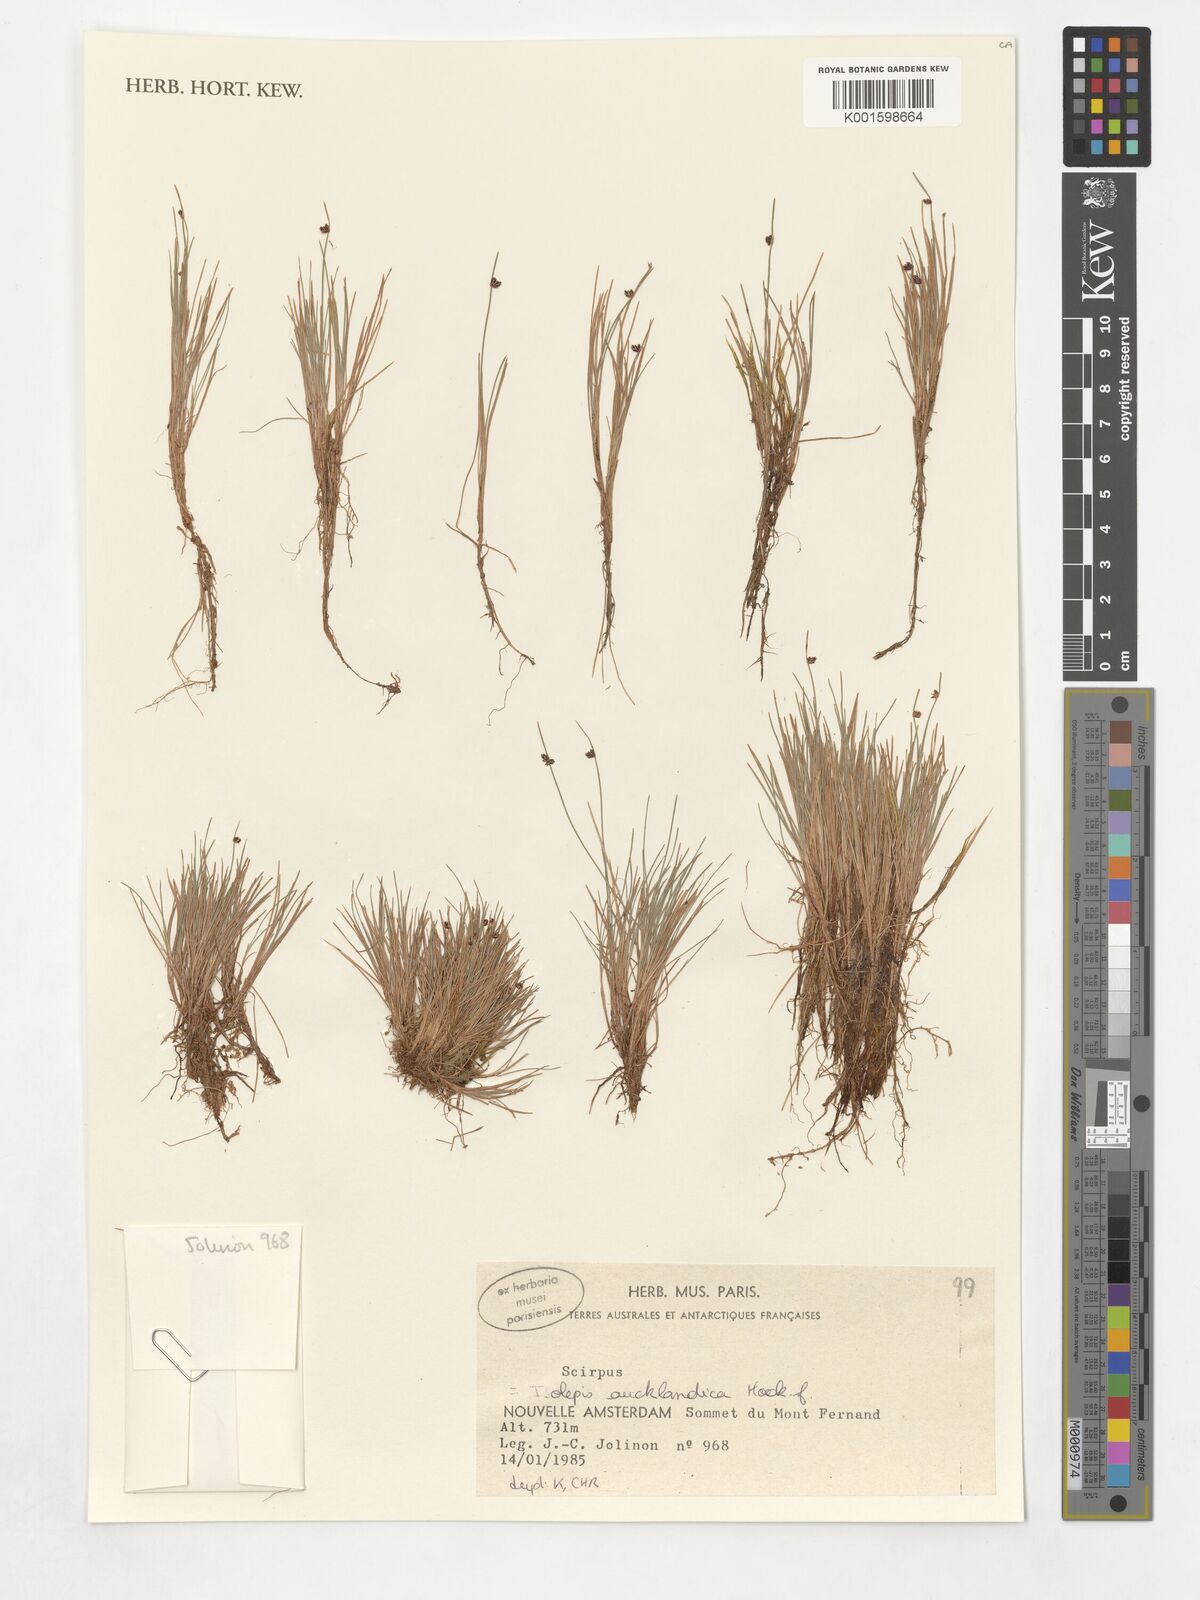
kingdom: Plantae
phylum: Tracheophyta
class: Liliopsida
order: Poales
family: Cyperaceae
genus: Isolepis
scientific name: Isolepis aucklandica
